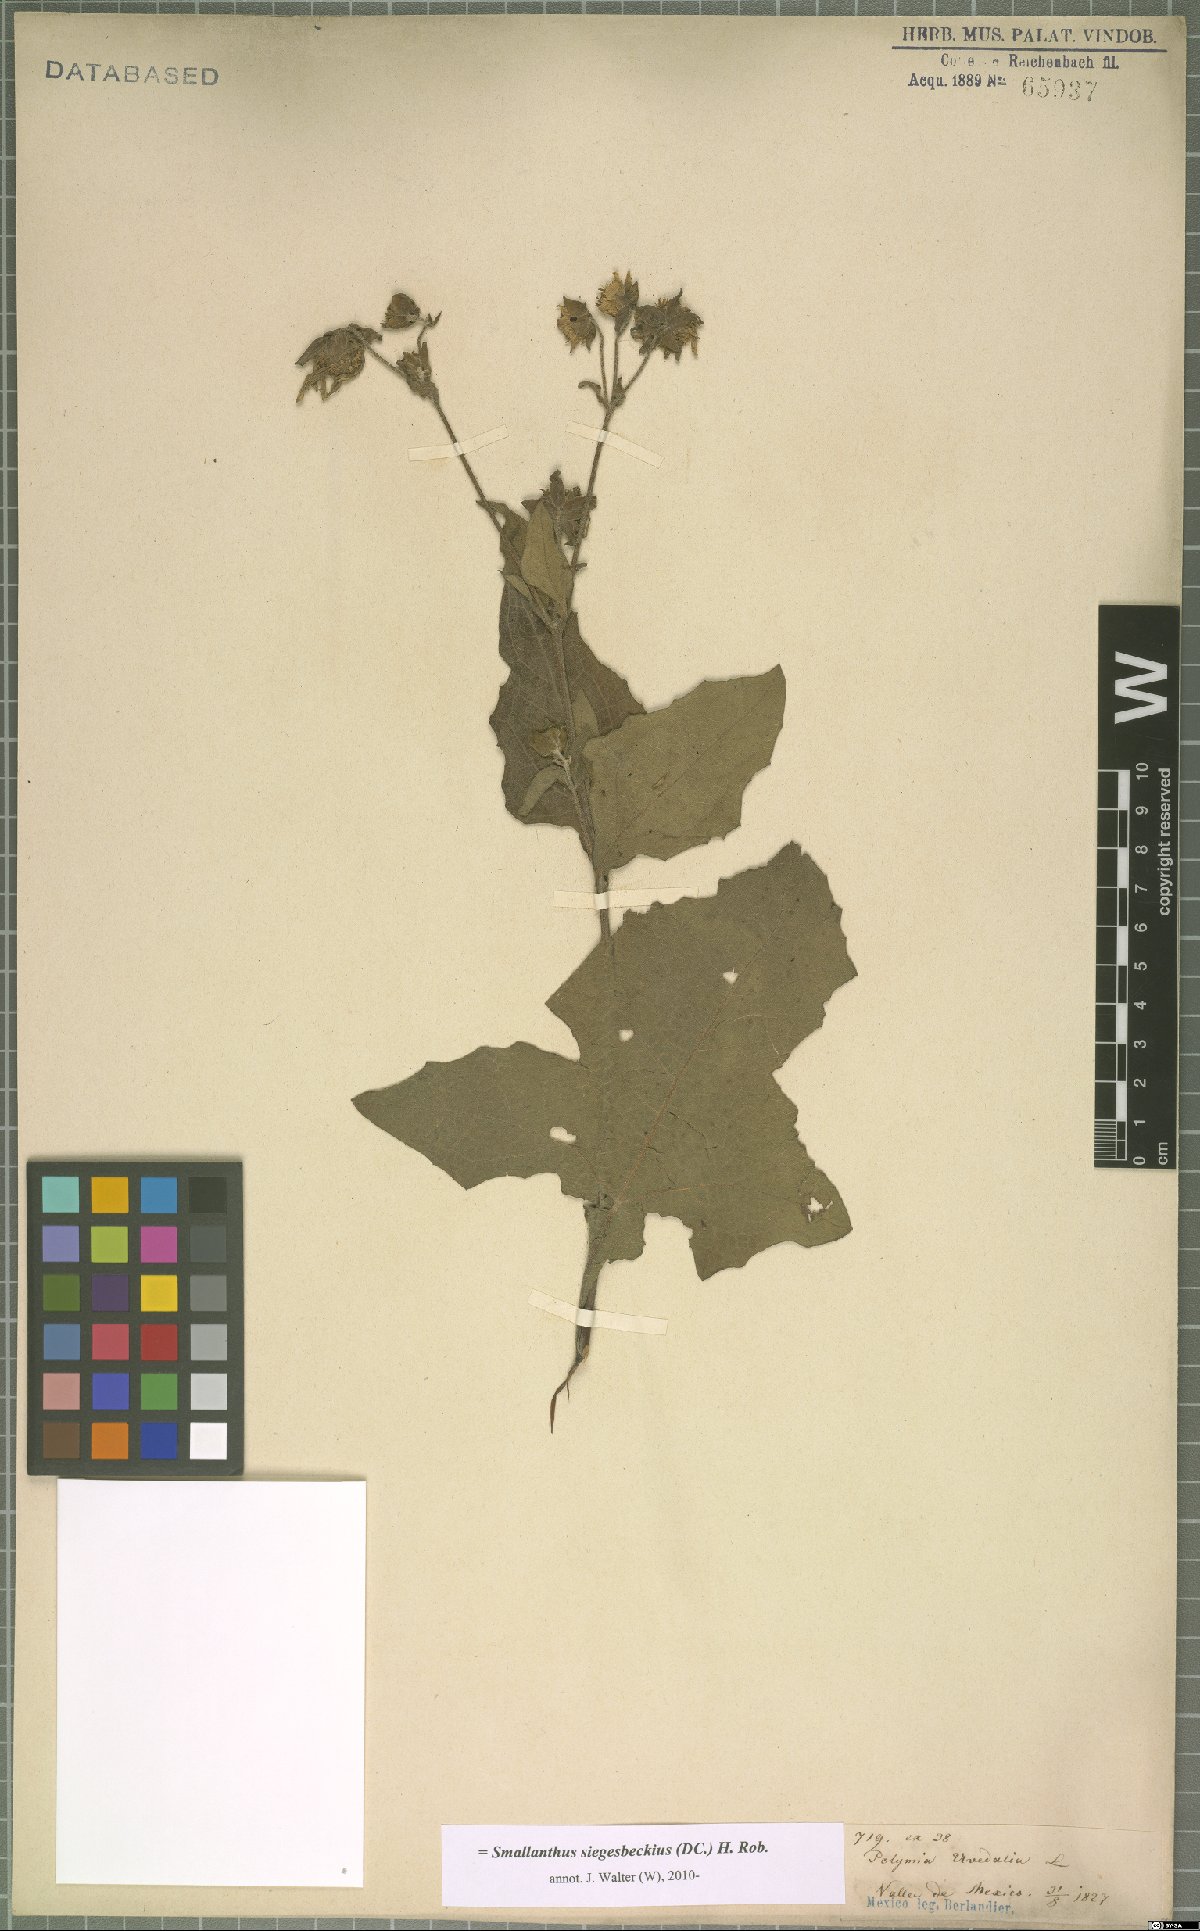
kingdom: Plantae
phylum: Tracheophyta
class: Magnoliopsida
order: Asterales
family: Asteraceae
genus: Smallanthus
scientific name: Smallanthus uvedalia
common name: Bear's-foot
